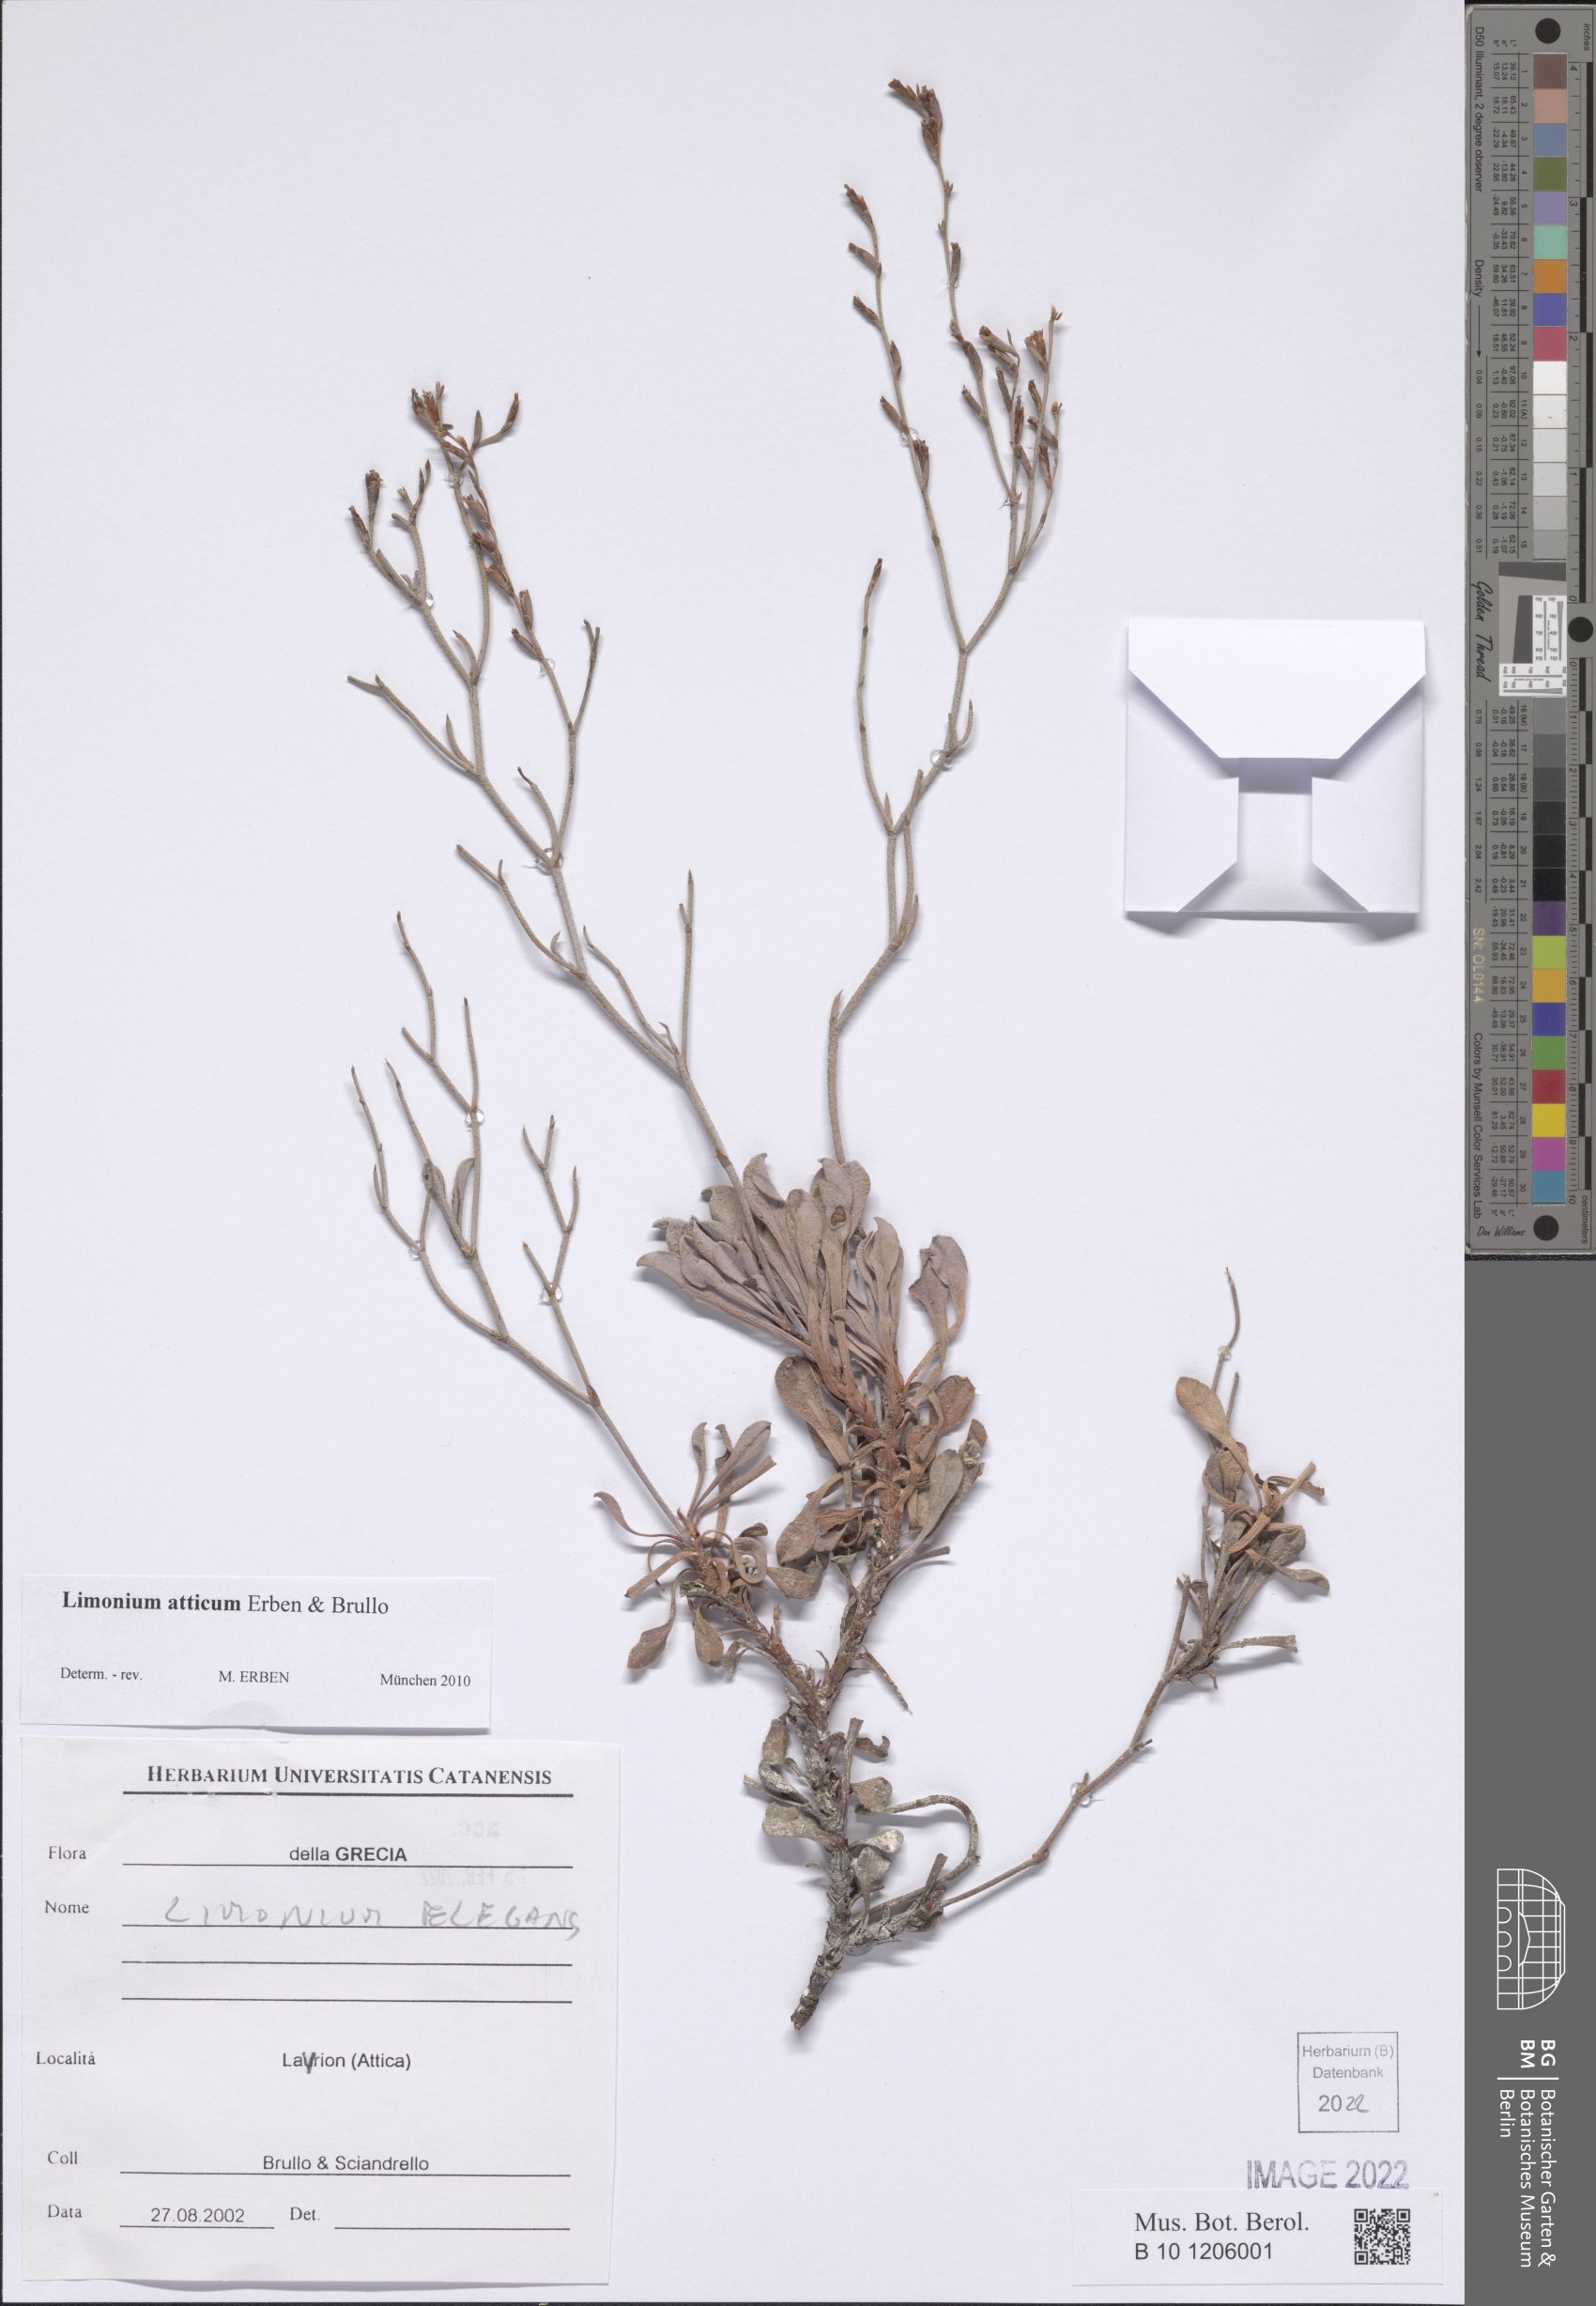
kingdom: Plantae
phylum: Tracheophyta
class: Magnoliopsida
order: Caryophyllales
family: Plumbaginaceae
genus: Limonium
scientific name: Limonium atticum
